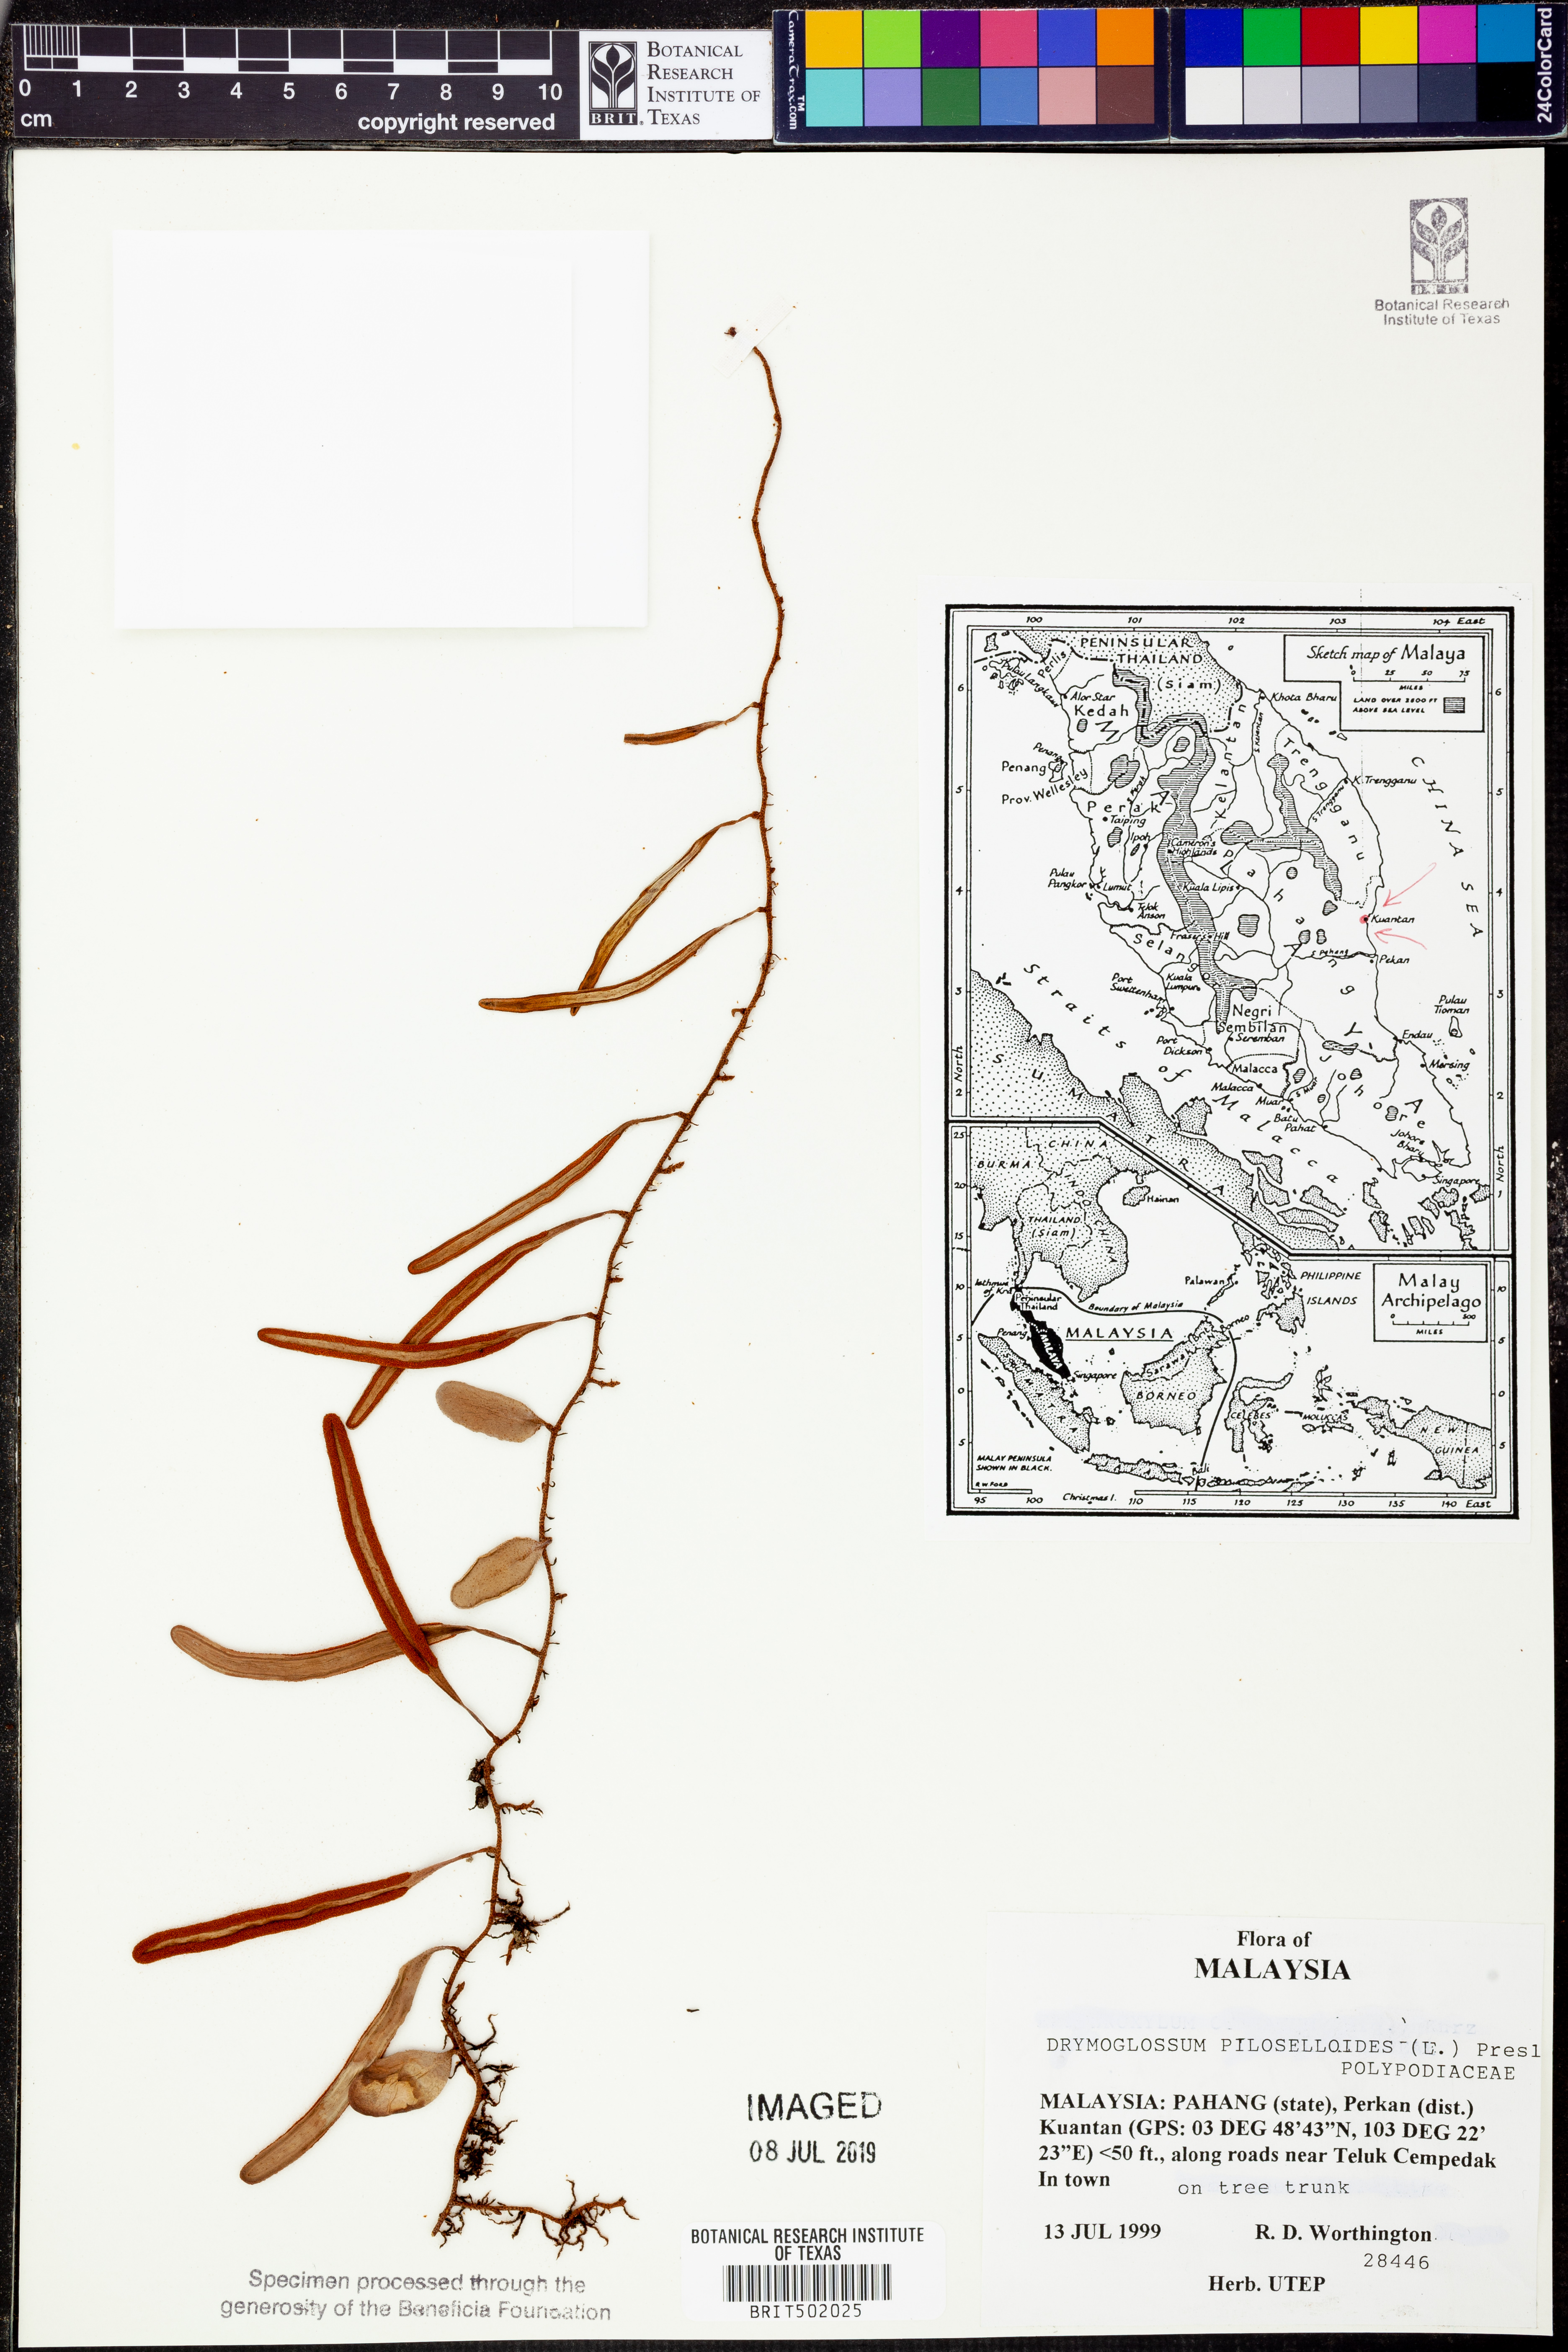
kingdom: Plantae
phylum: Tracheophyta
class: Polypodiopsida
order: Polypodiales
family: Polypodiaceae
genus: Pyrrosia
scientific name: Pyrrosia piloselloides
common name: Epiphytic creeping fern
